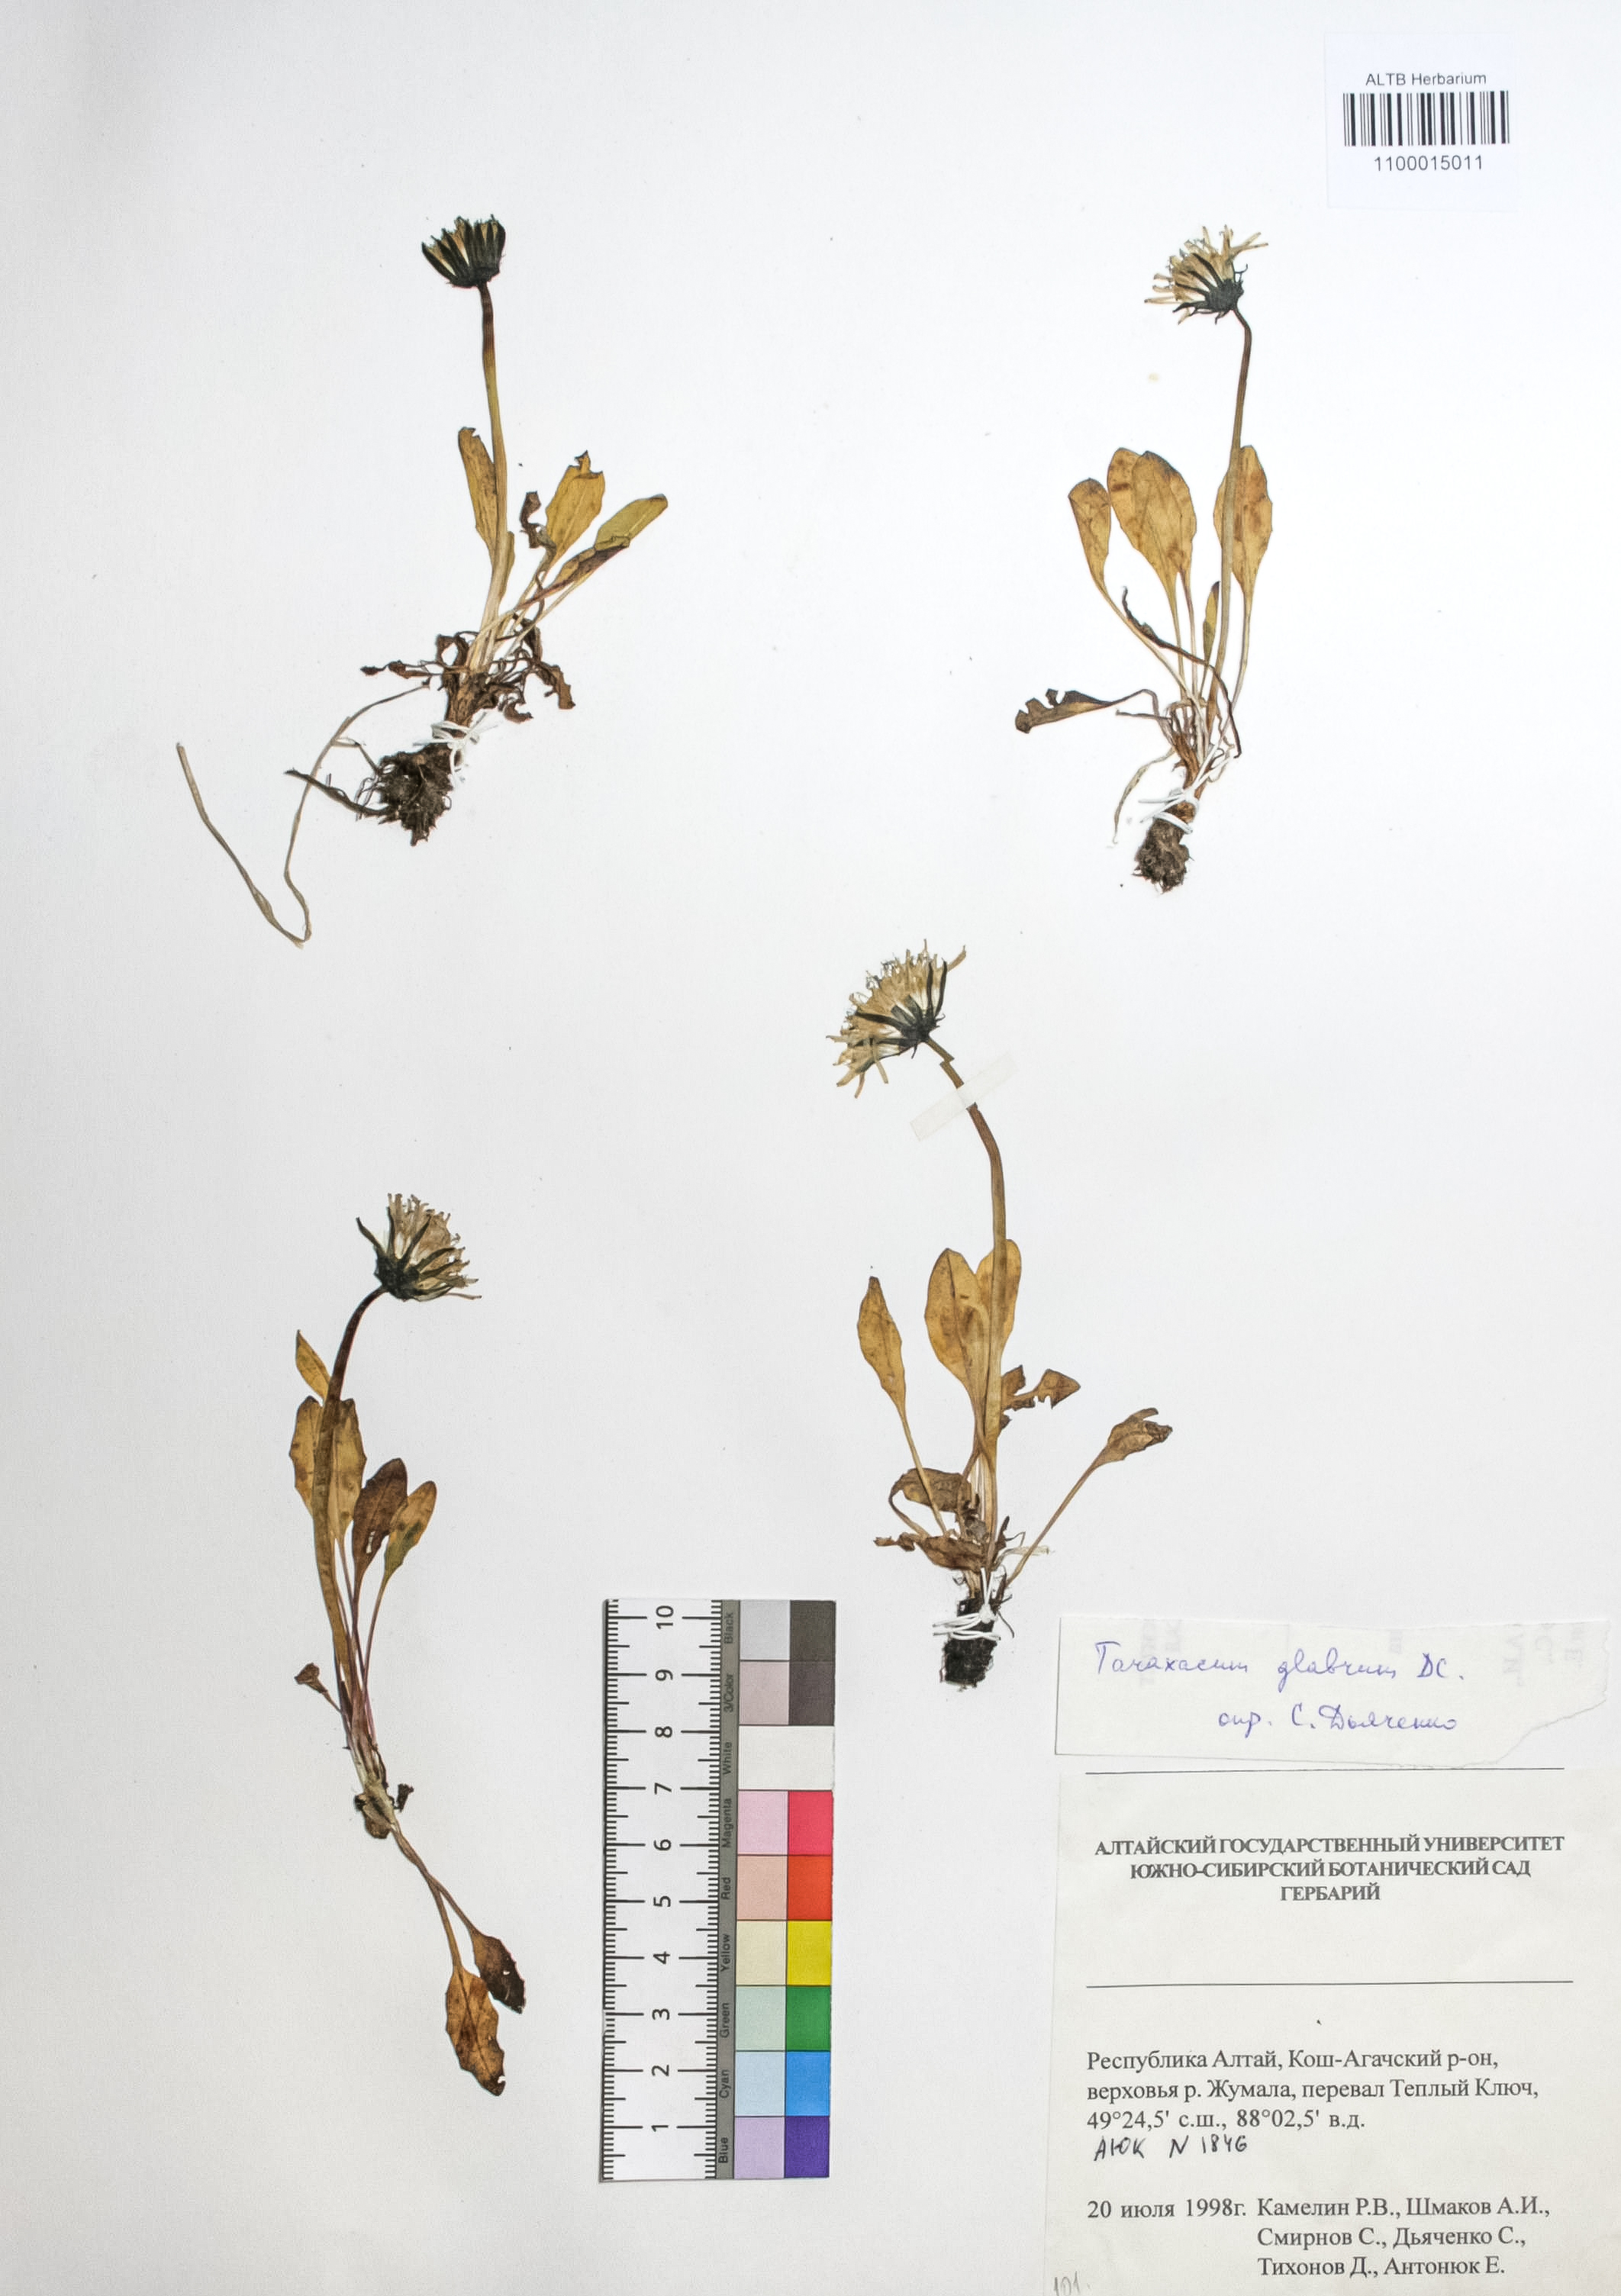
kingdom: Plantae
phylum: Tracheophyta
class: Magnoliopsida
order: Asterales
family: Asteraceae
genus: Taraxacum
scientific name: Taraxacum glabrum
